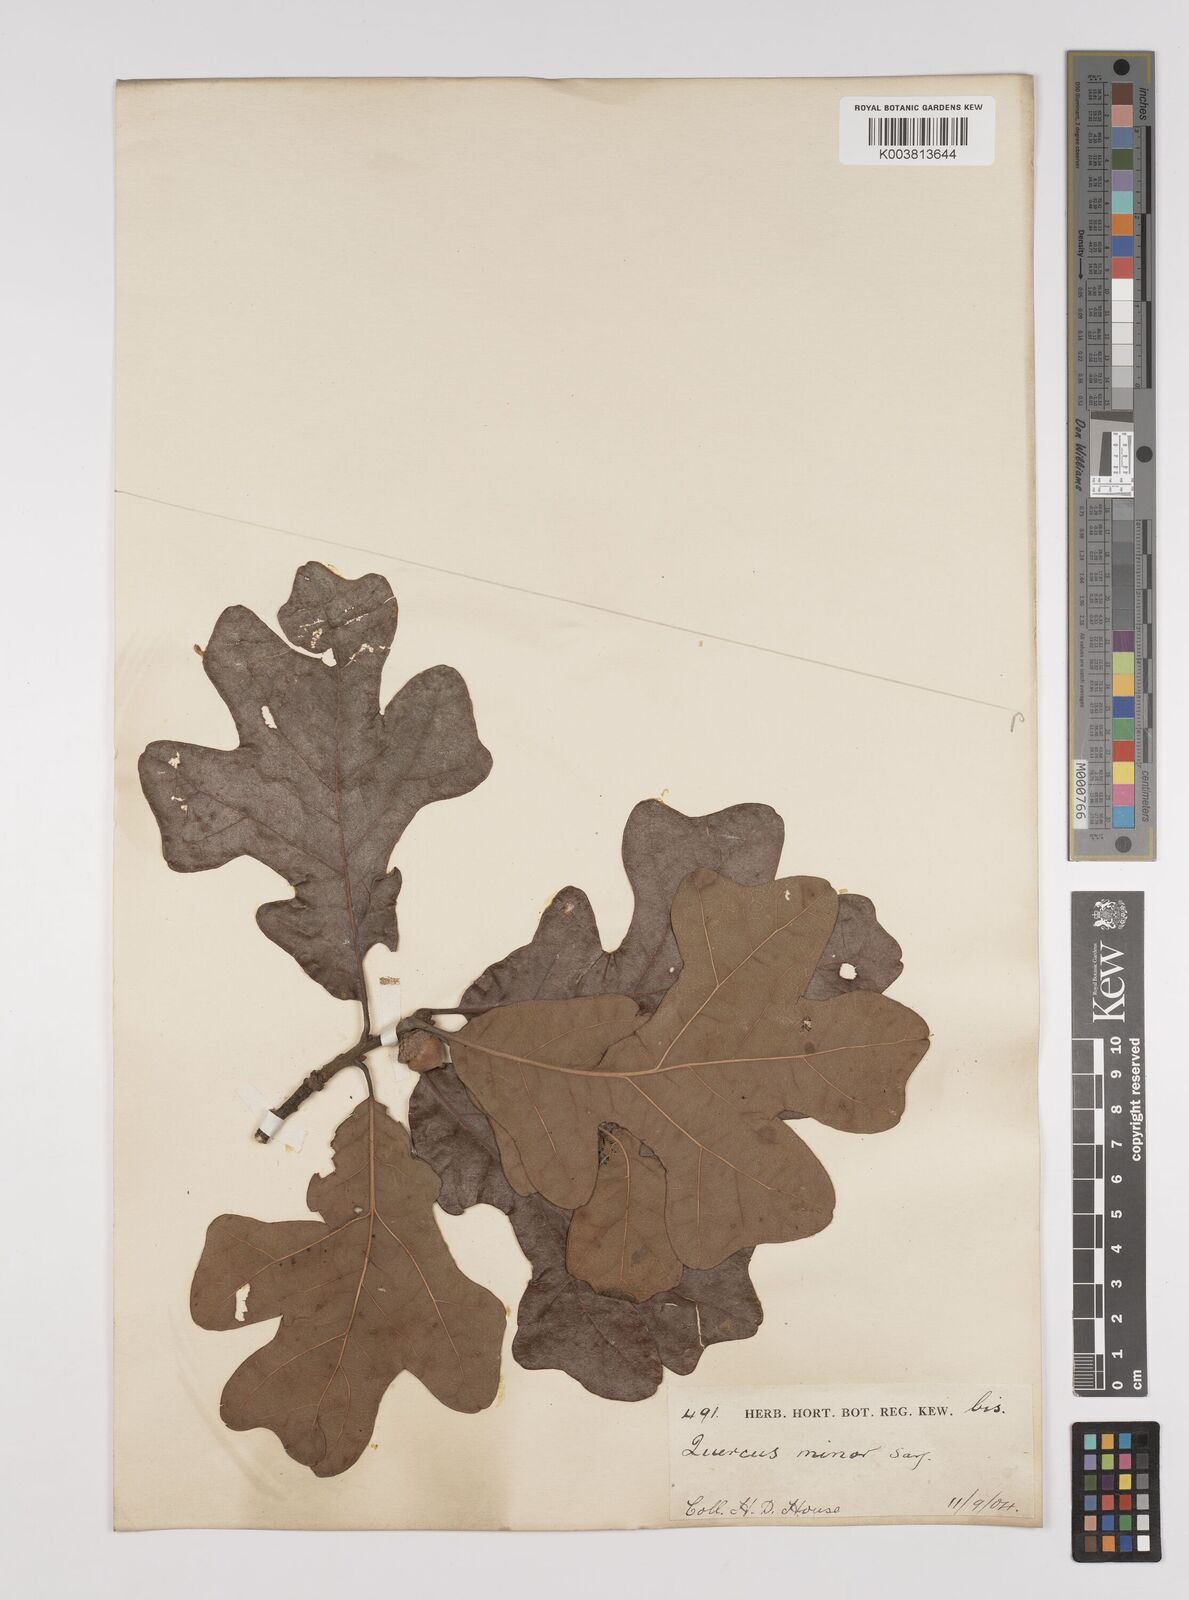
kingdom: Plantae
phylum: Tracheophyta
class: Magnoliopsida
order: Fagales
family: Fagaceae
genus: Quercus
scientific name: Quercus stellata
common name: Post oak
